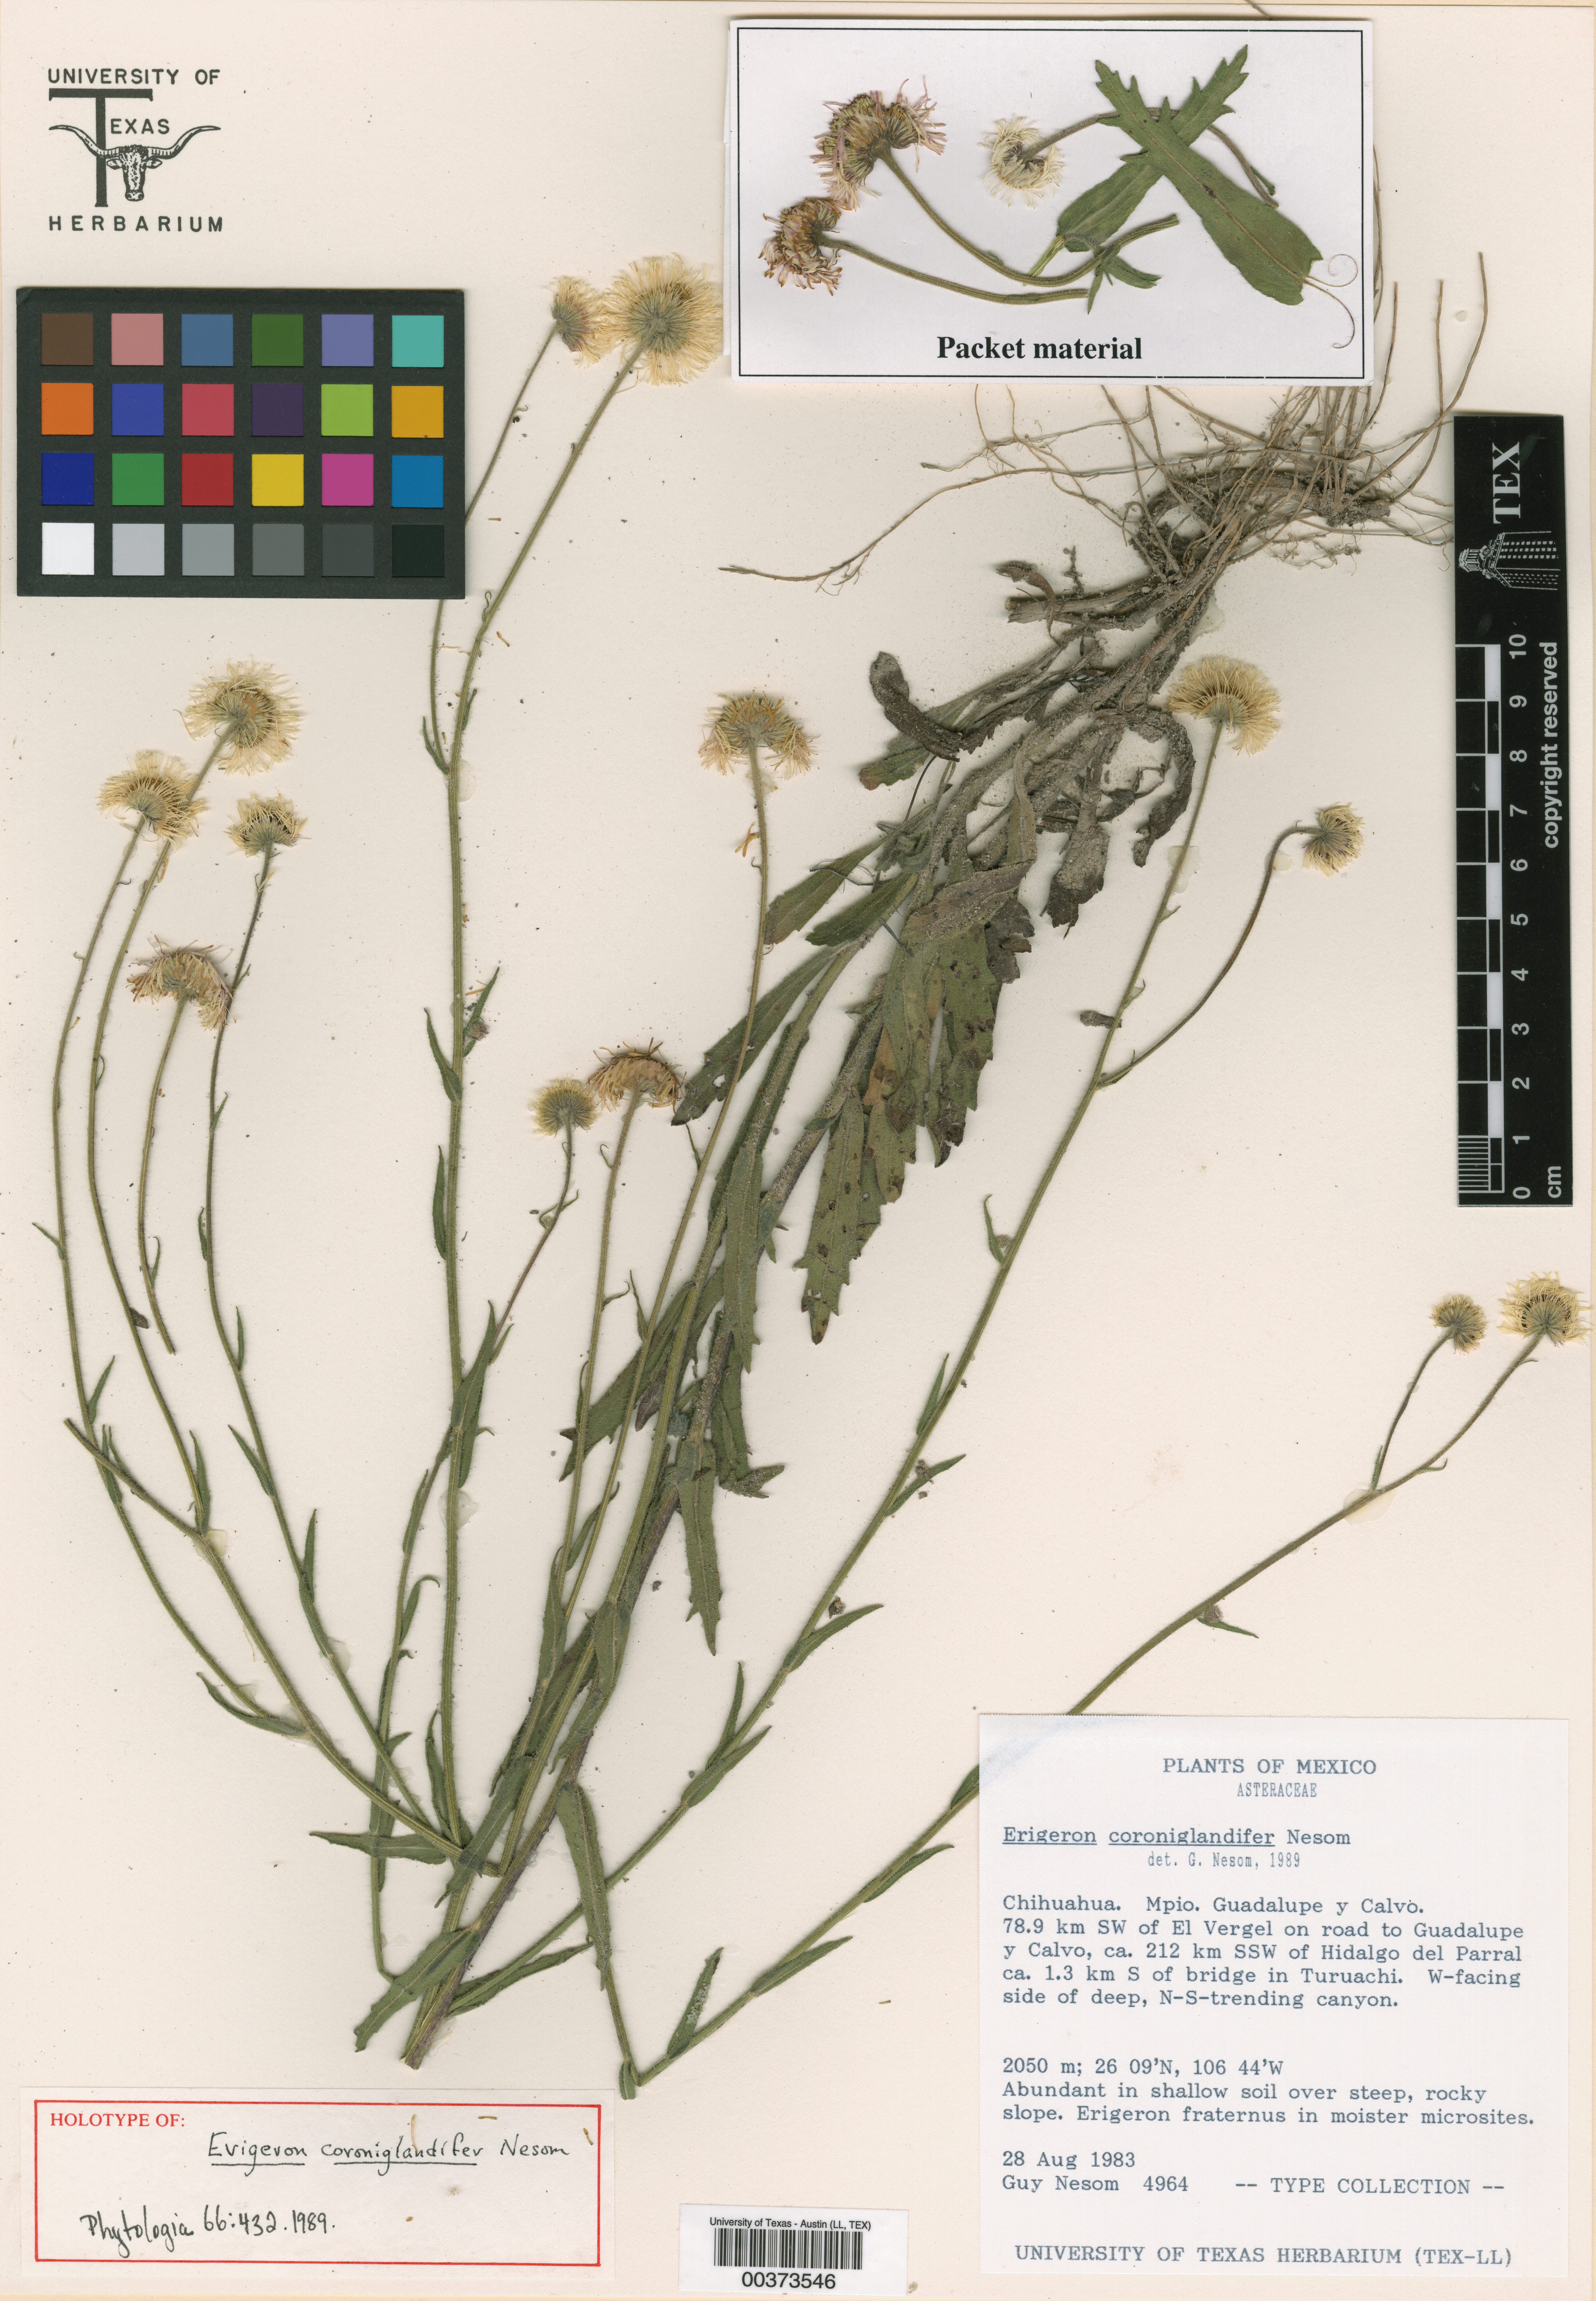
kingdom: Plantae
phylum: Tracheophyta
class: Magnoliopsida
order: Asterales
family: Asteraceae
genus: Erigeron
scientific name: Erigeron coroniglandifer
